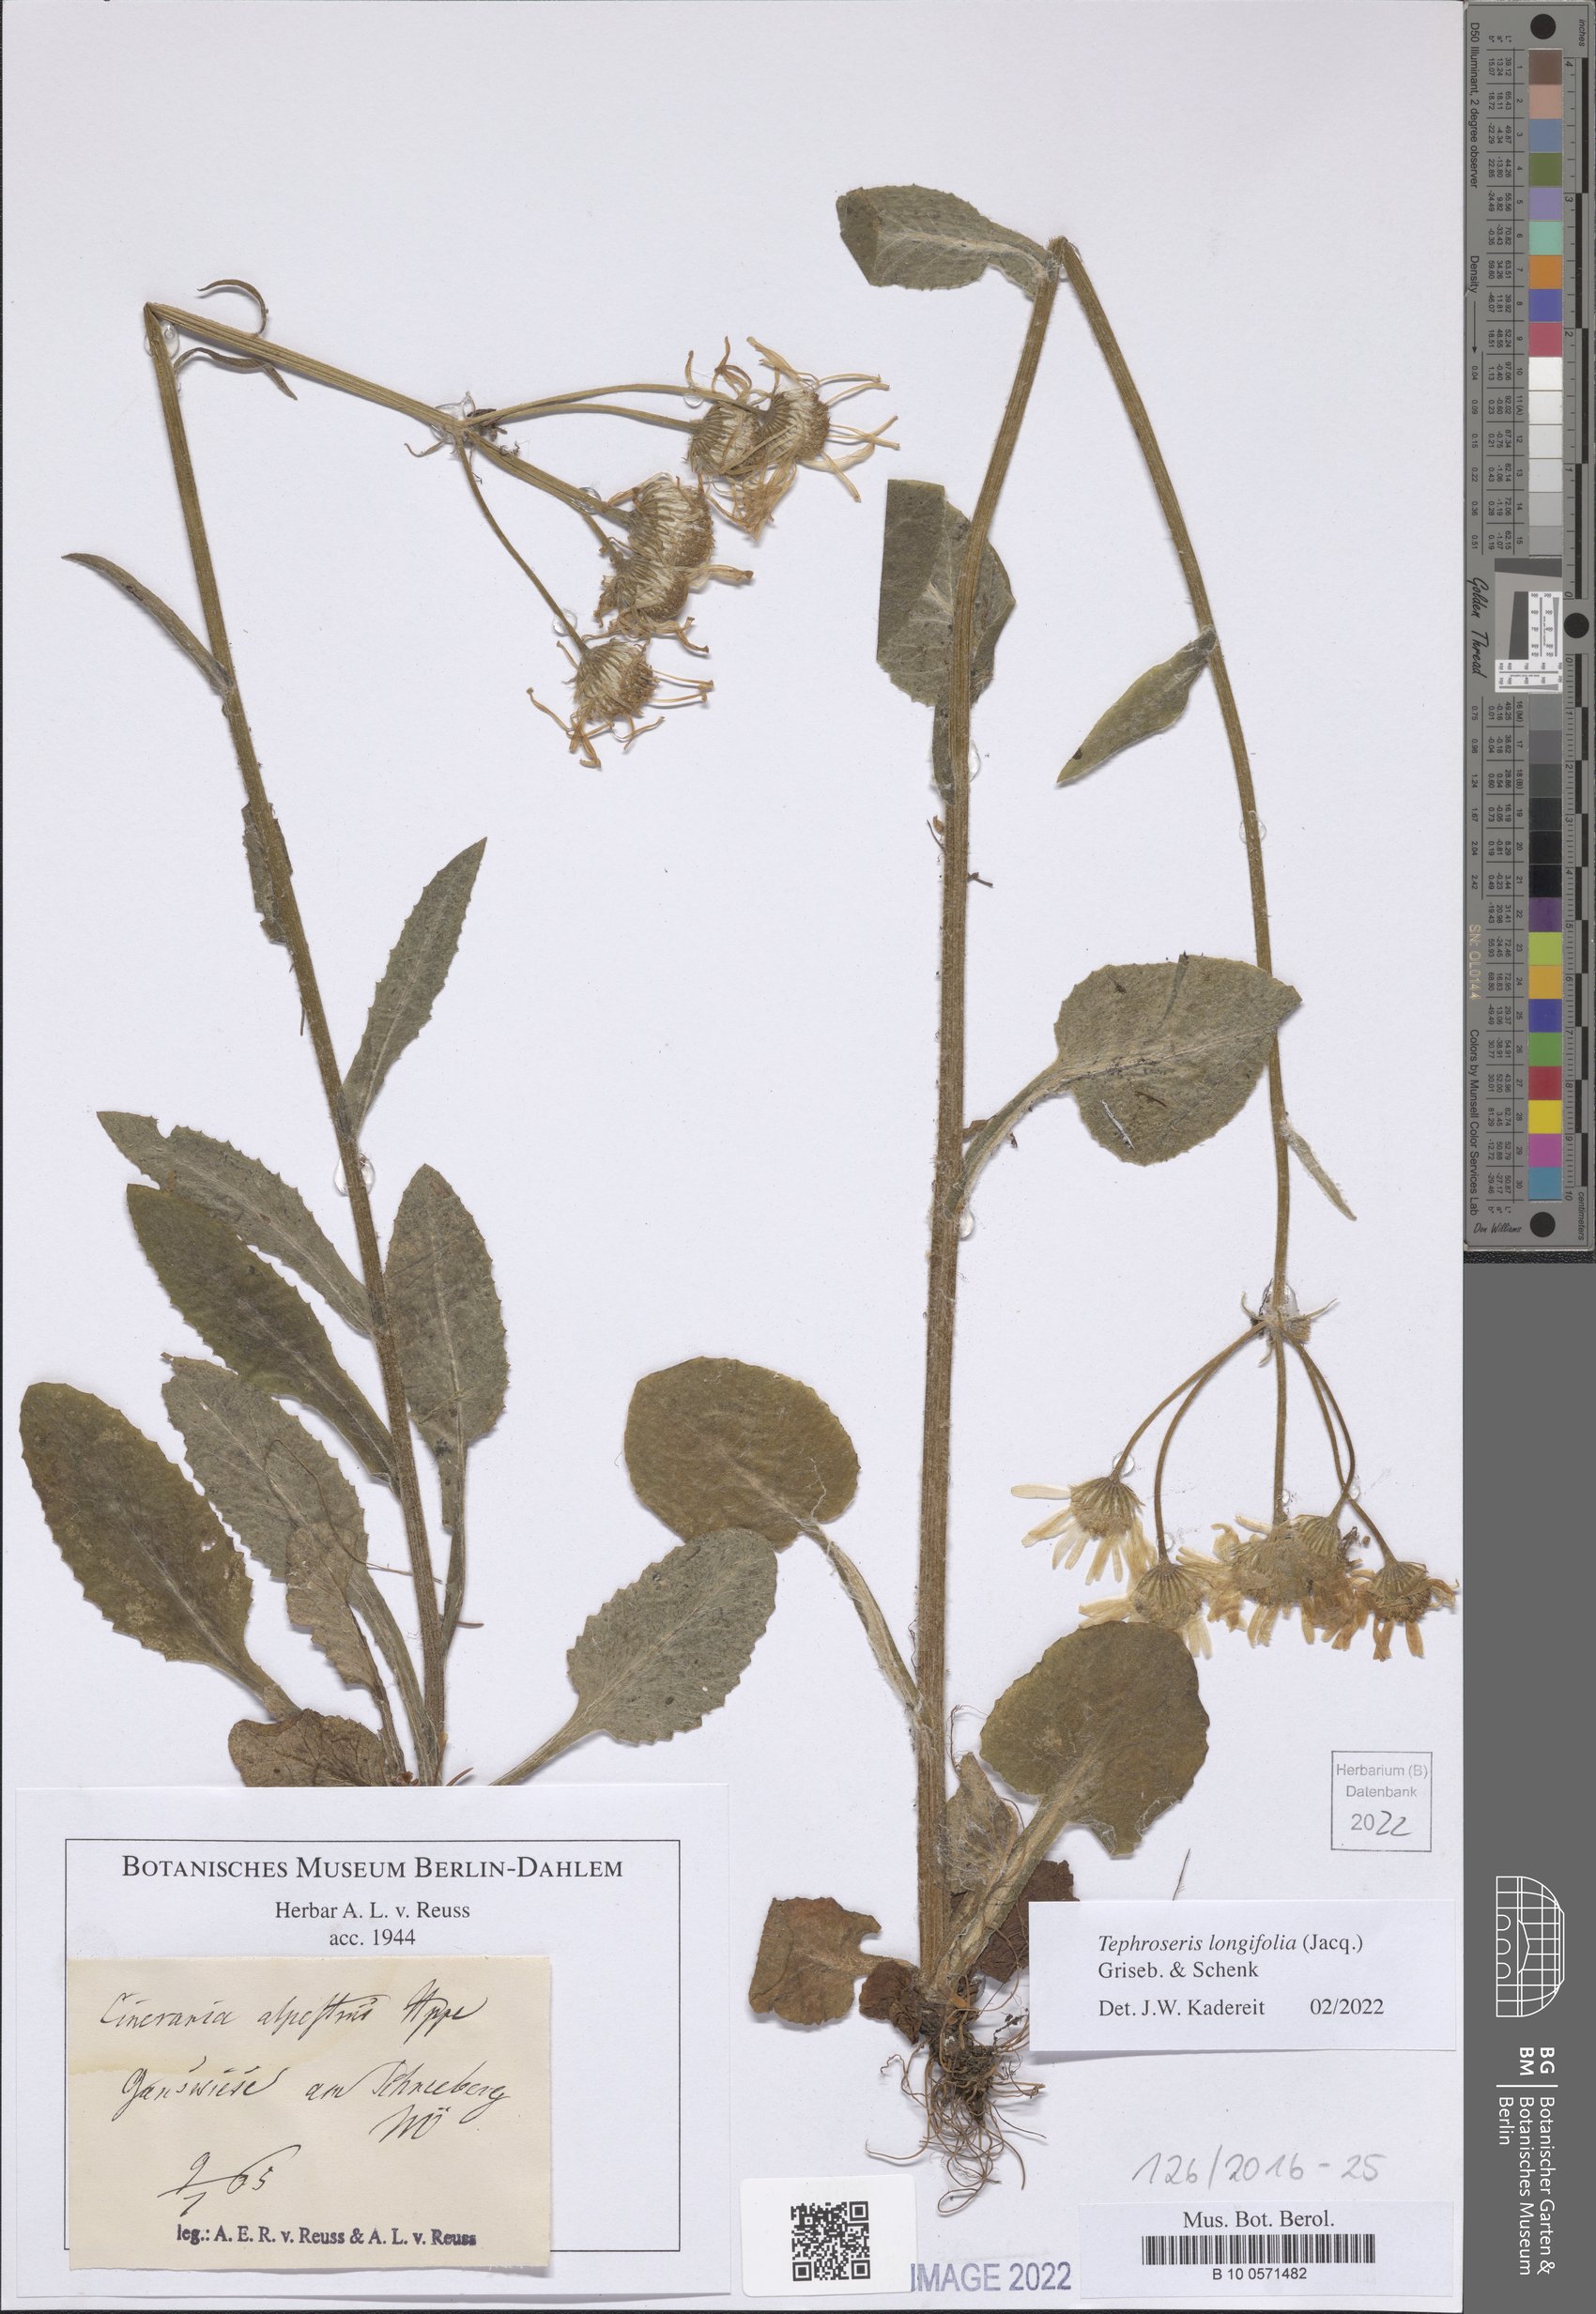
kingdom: Plantae
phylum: Tracheophyta
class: Magnoliopsida
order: Asterales
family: Asteraceae
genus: Tephroseris
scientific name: Tephroseris longifolia
